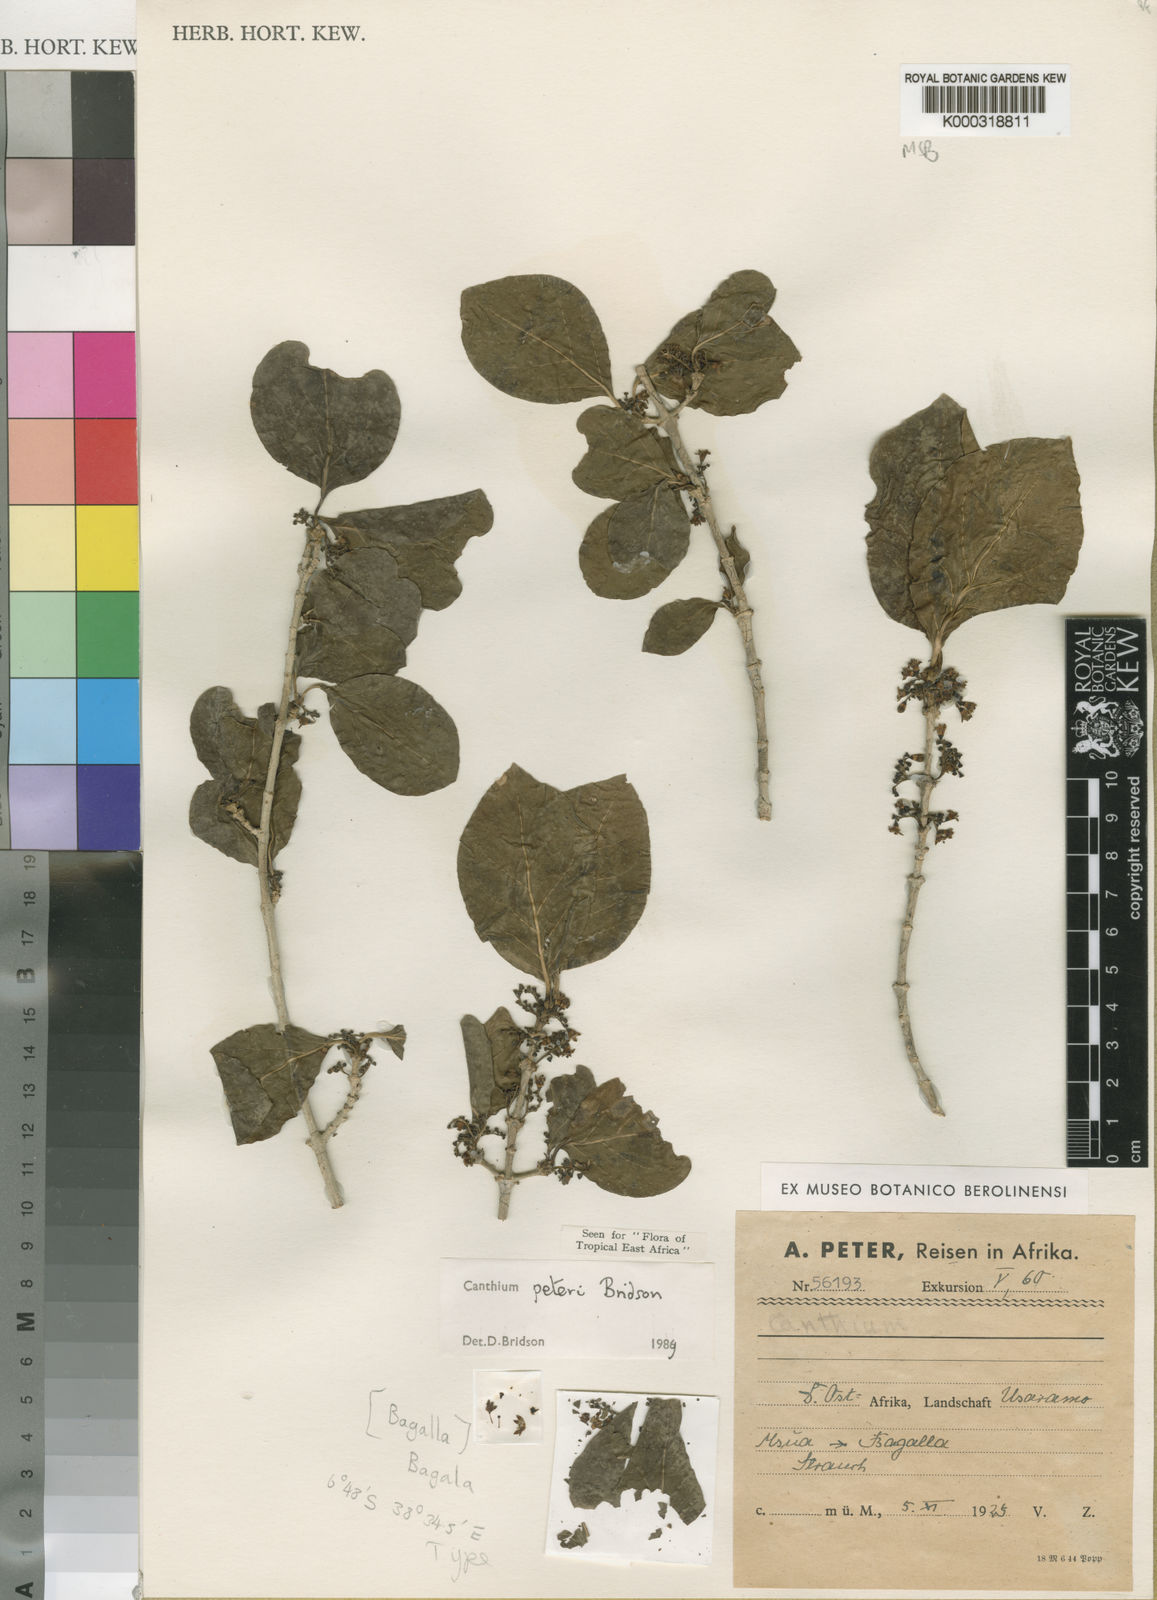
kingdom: Plantae
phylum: Tracheophyta
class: Magnoliopsida
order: Gentianales
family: Rubiaceae
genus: Afrocanthium
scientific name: Afrocanthium peteri
